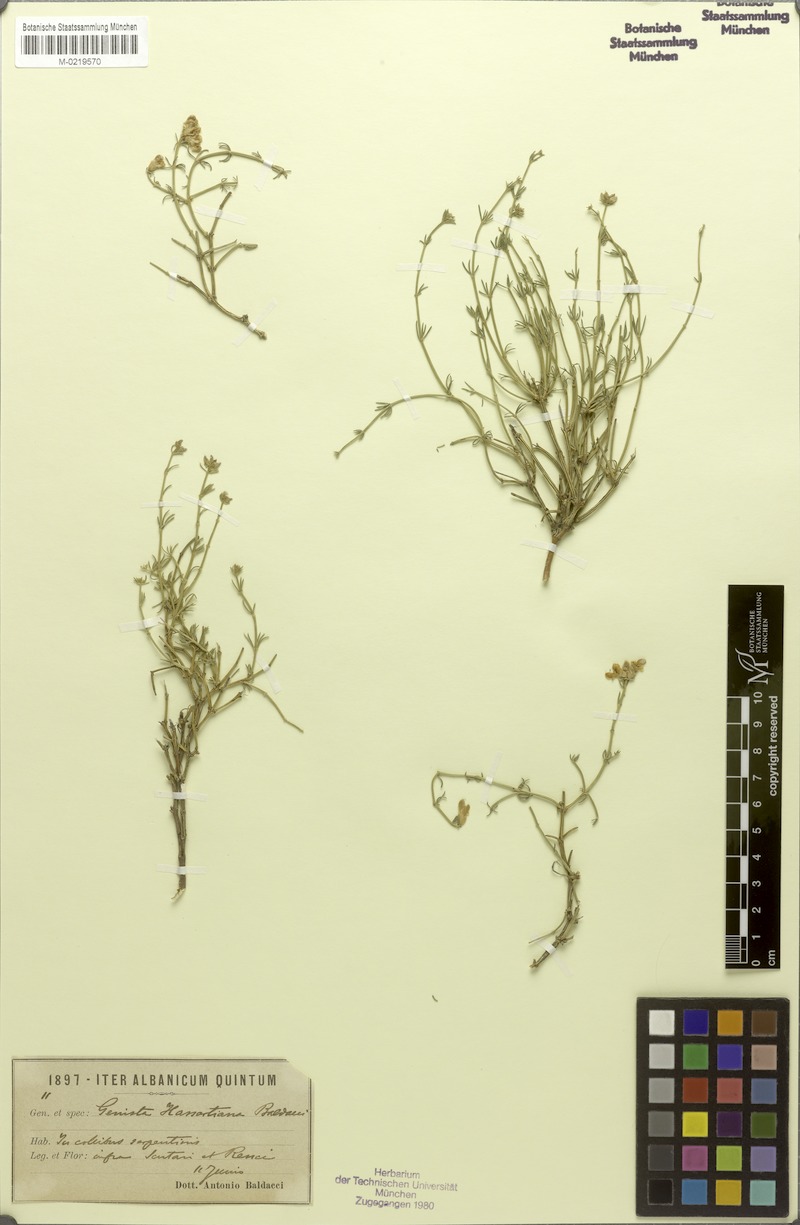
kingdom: Plantae
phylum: Tracheophyta
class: Magnoliopsida
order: Fabales
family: Fabaceae
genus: Genista
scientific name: Genista hassertiana
